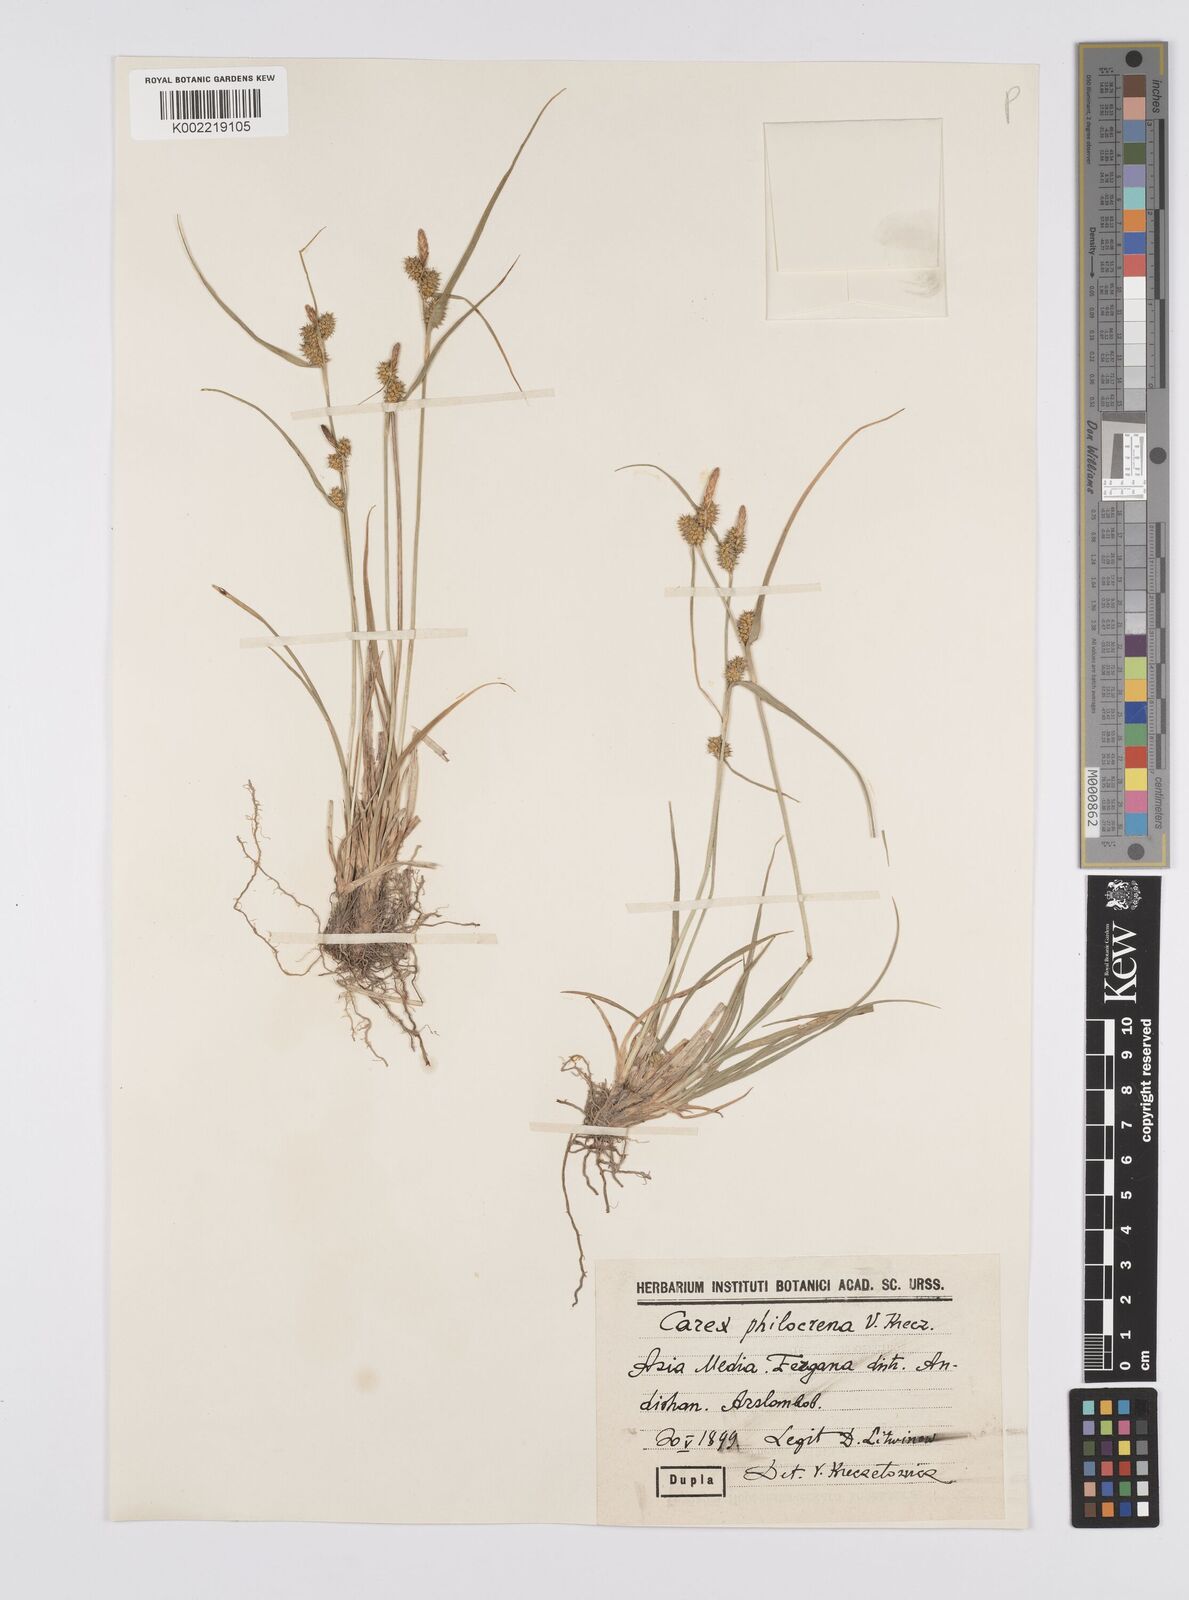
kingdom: Plantae
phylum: Tracheophyta
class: Liliopsida
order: Poales
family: Cyperaceae
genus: Carex
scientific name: Carex oederi
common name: Common & small-fruited yellow-sedge
